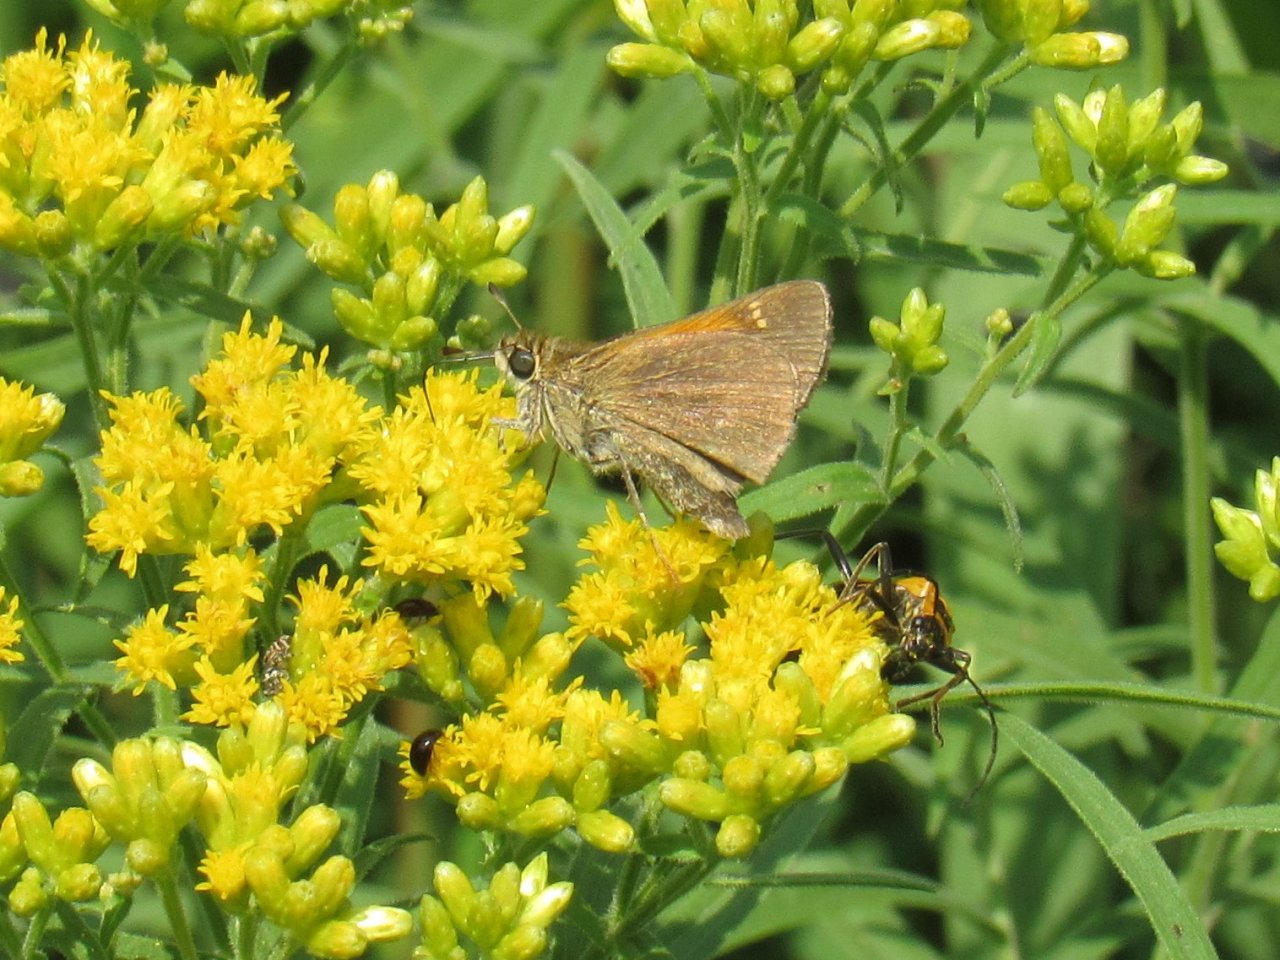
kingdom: Animalia
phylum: Arthropoda
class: Insecta
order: Lepidoptera
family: Hesperiidae
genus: Polites
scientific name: Polites themistocles
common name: Tawny-edged Skipper
